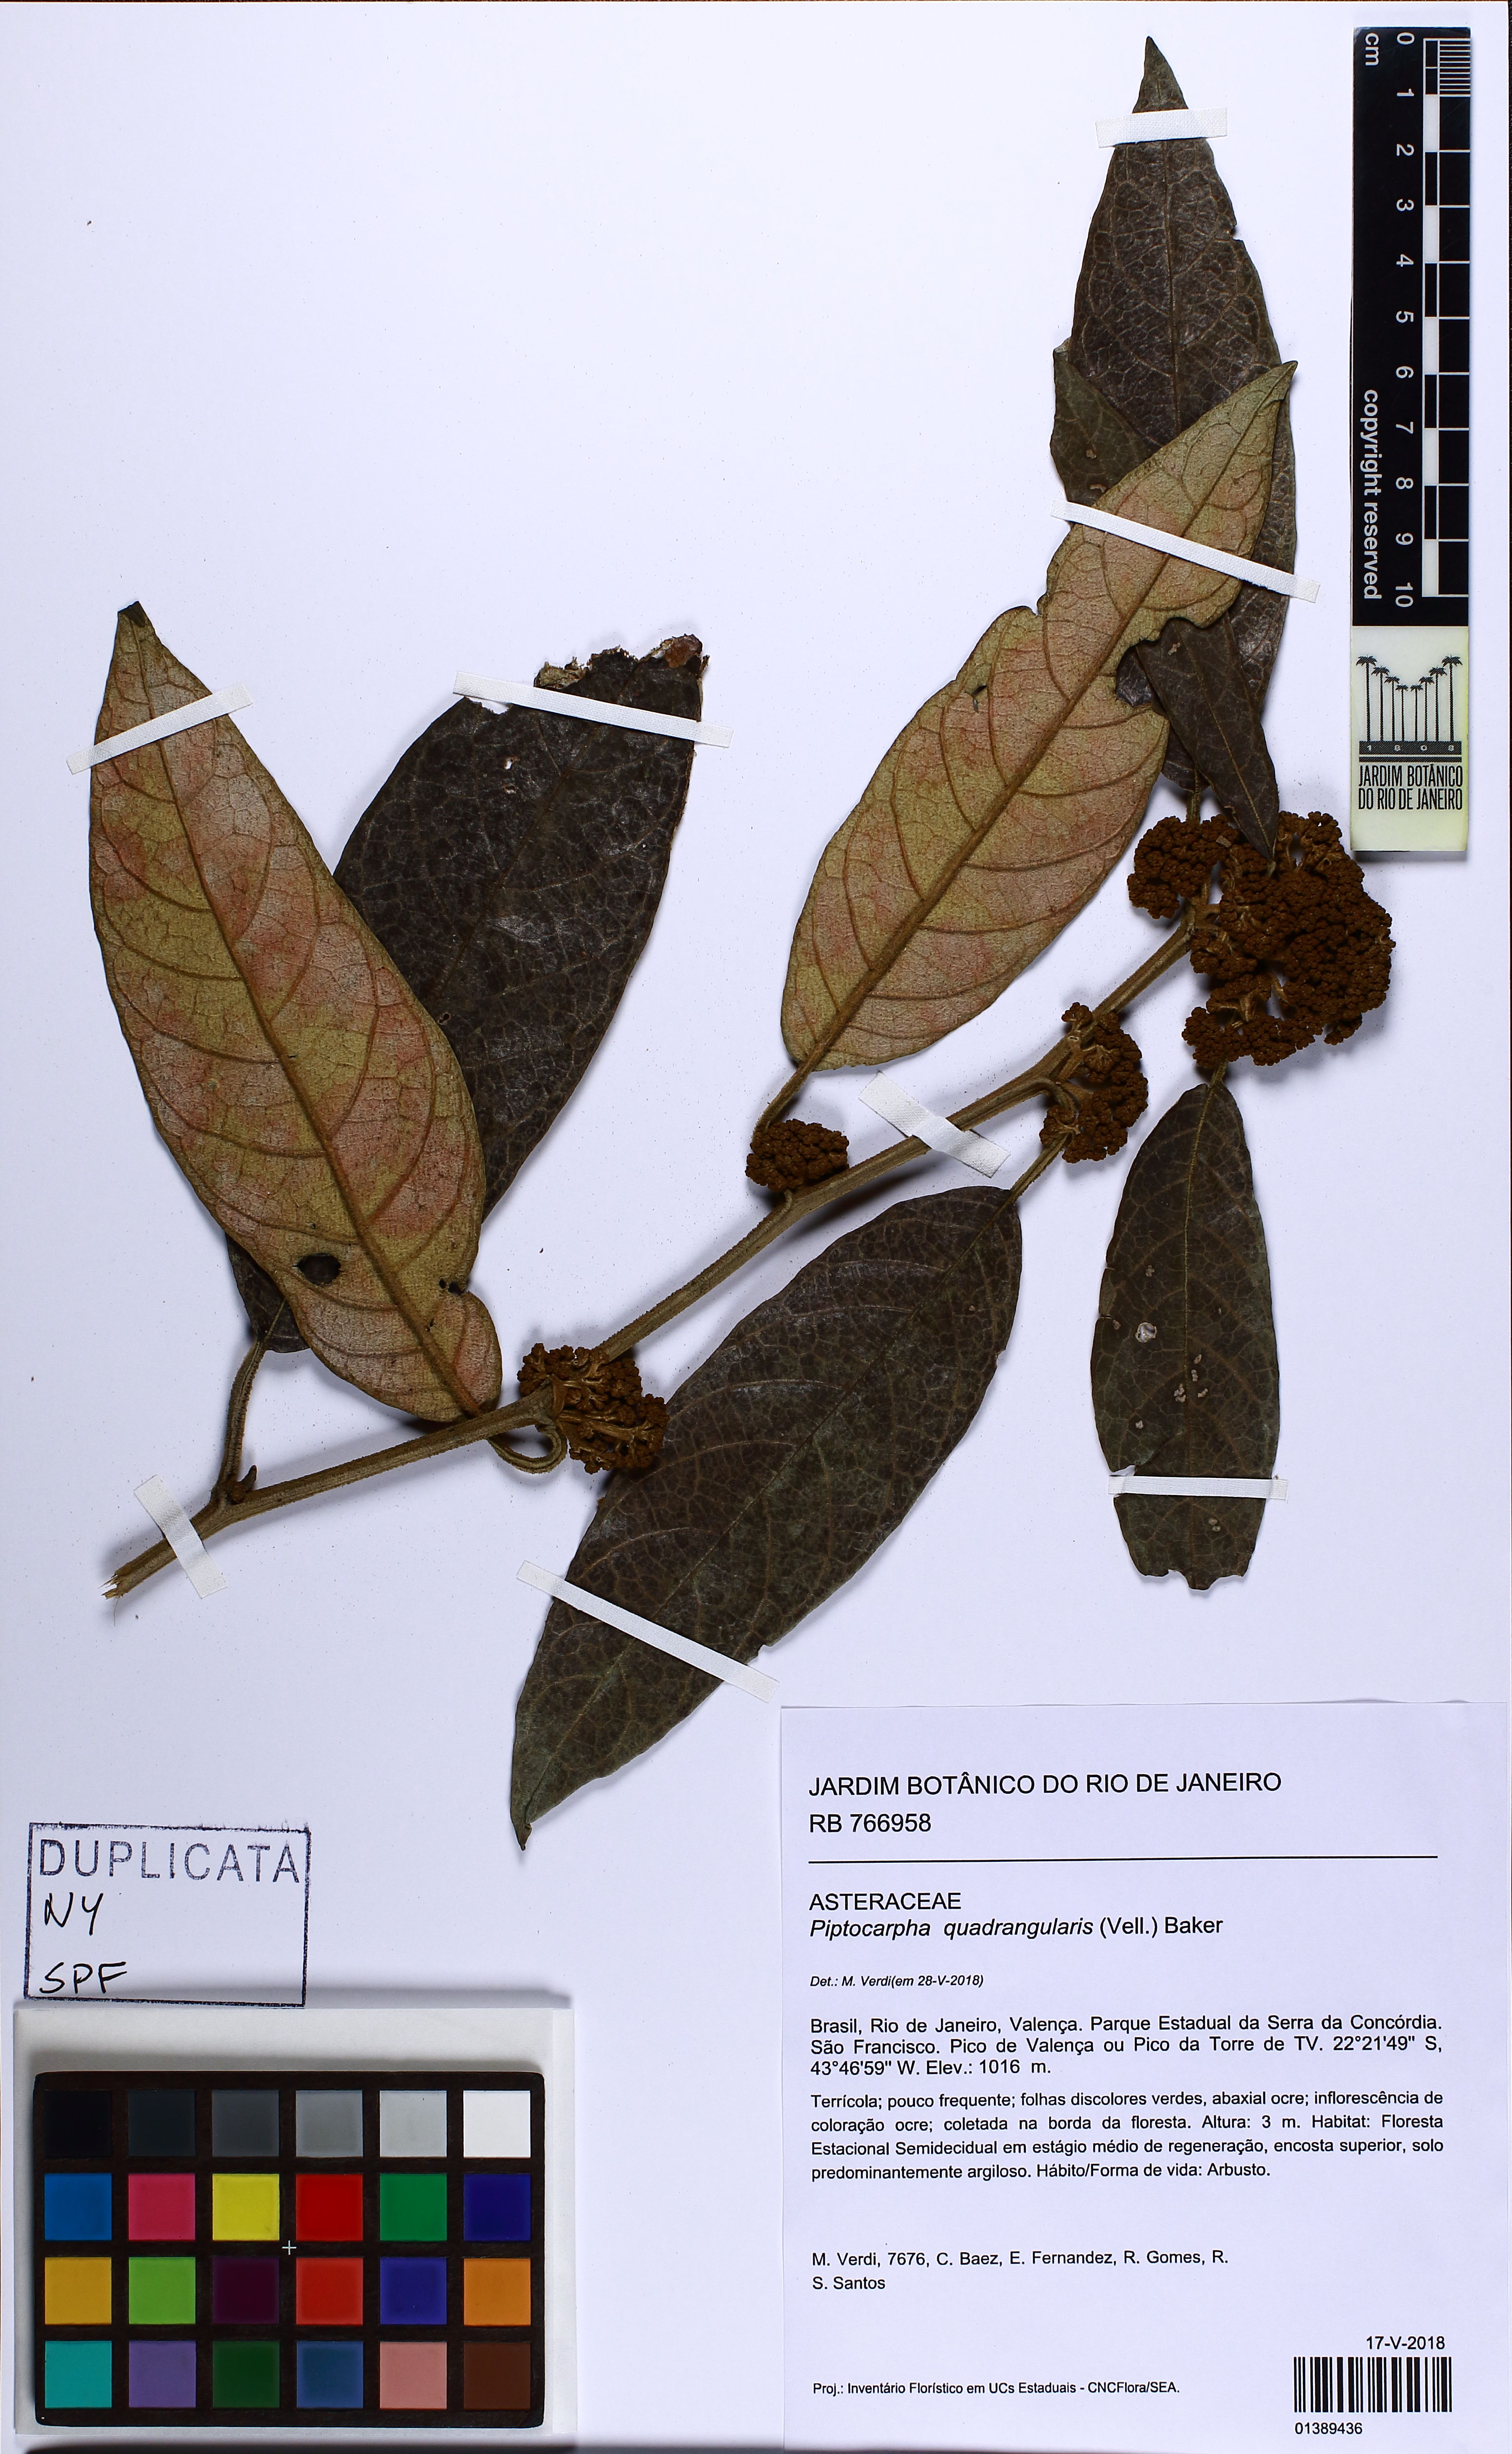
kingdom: Plantae
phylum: Tracheophyta
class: Magnoliopsida
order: Asterales
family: Asteraceae
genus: Piptocarpha
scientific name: Piptocarpha quadrangularis
